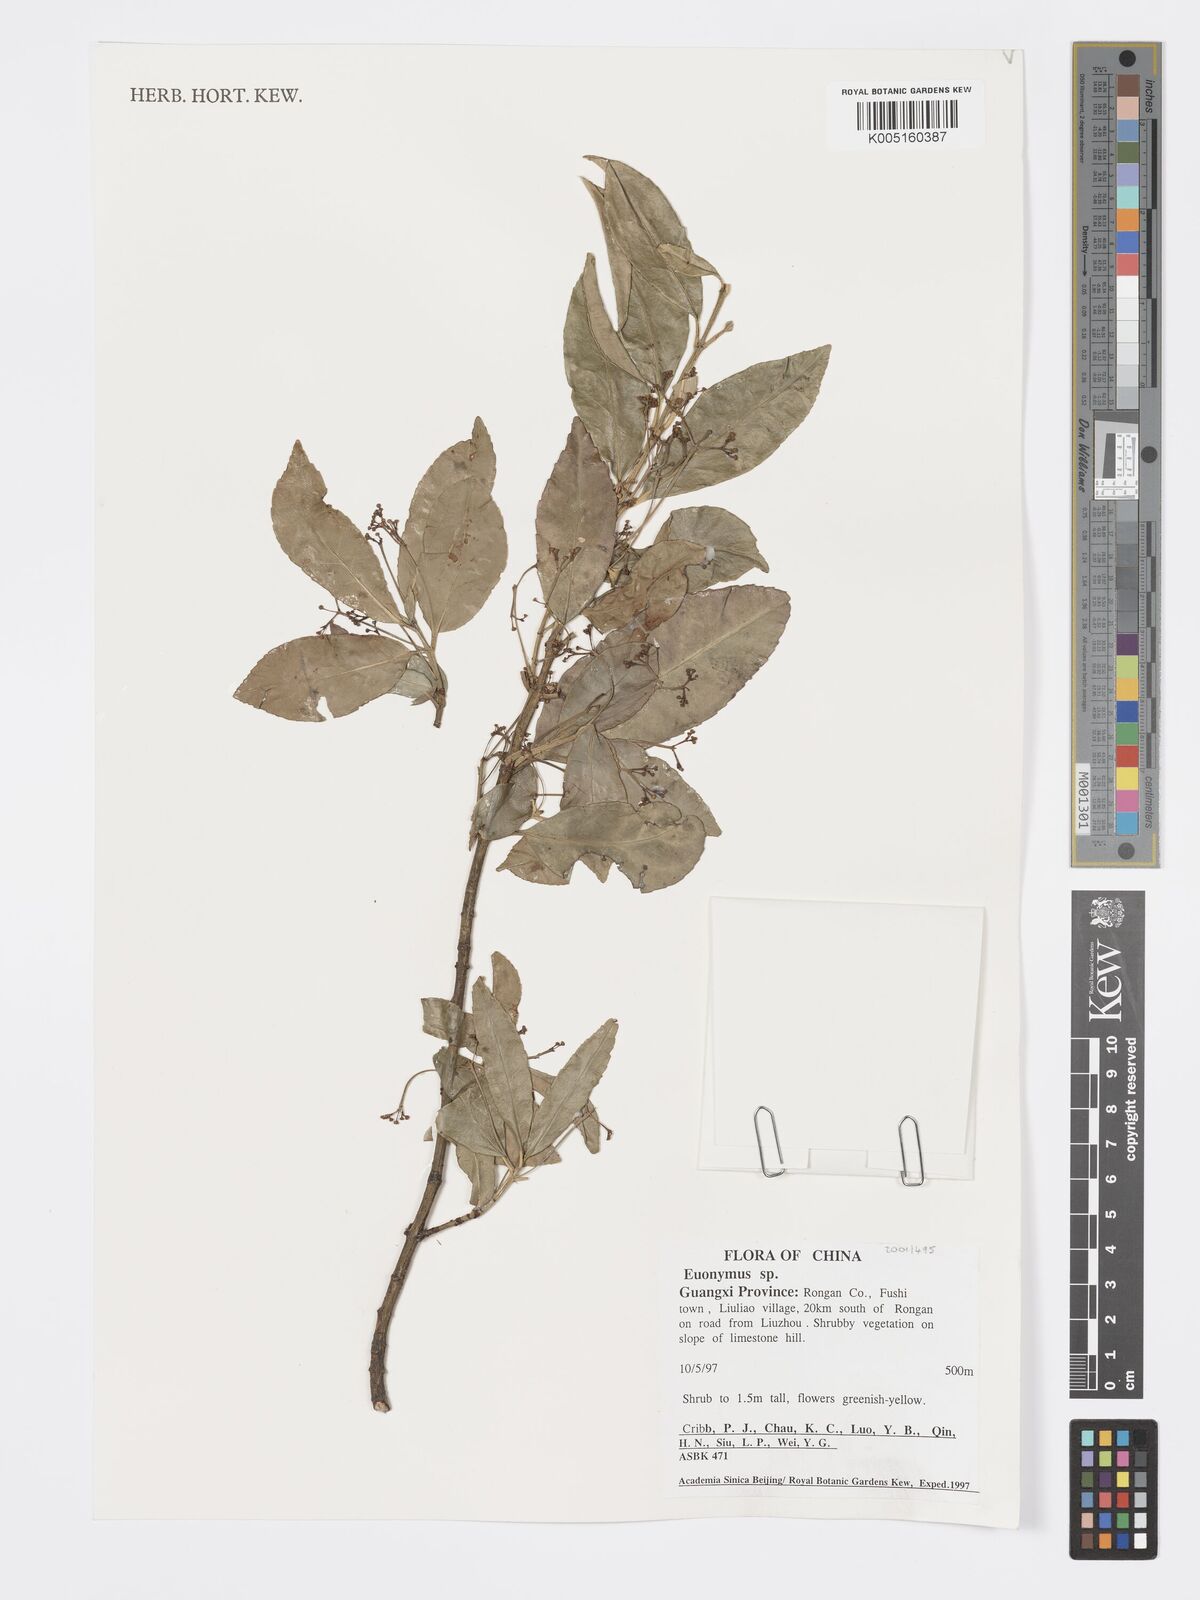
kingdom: Plantae
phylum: Tracheophyta
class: Magnoliopsida
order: Celastrales
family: Celastraceae
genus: Euonymus
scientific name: Euonymus
